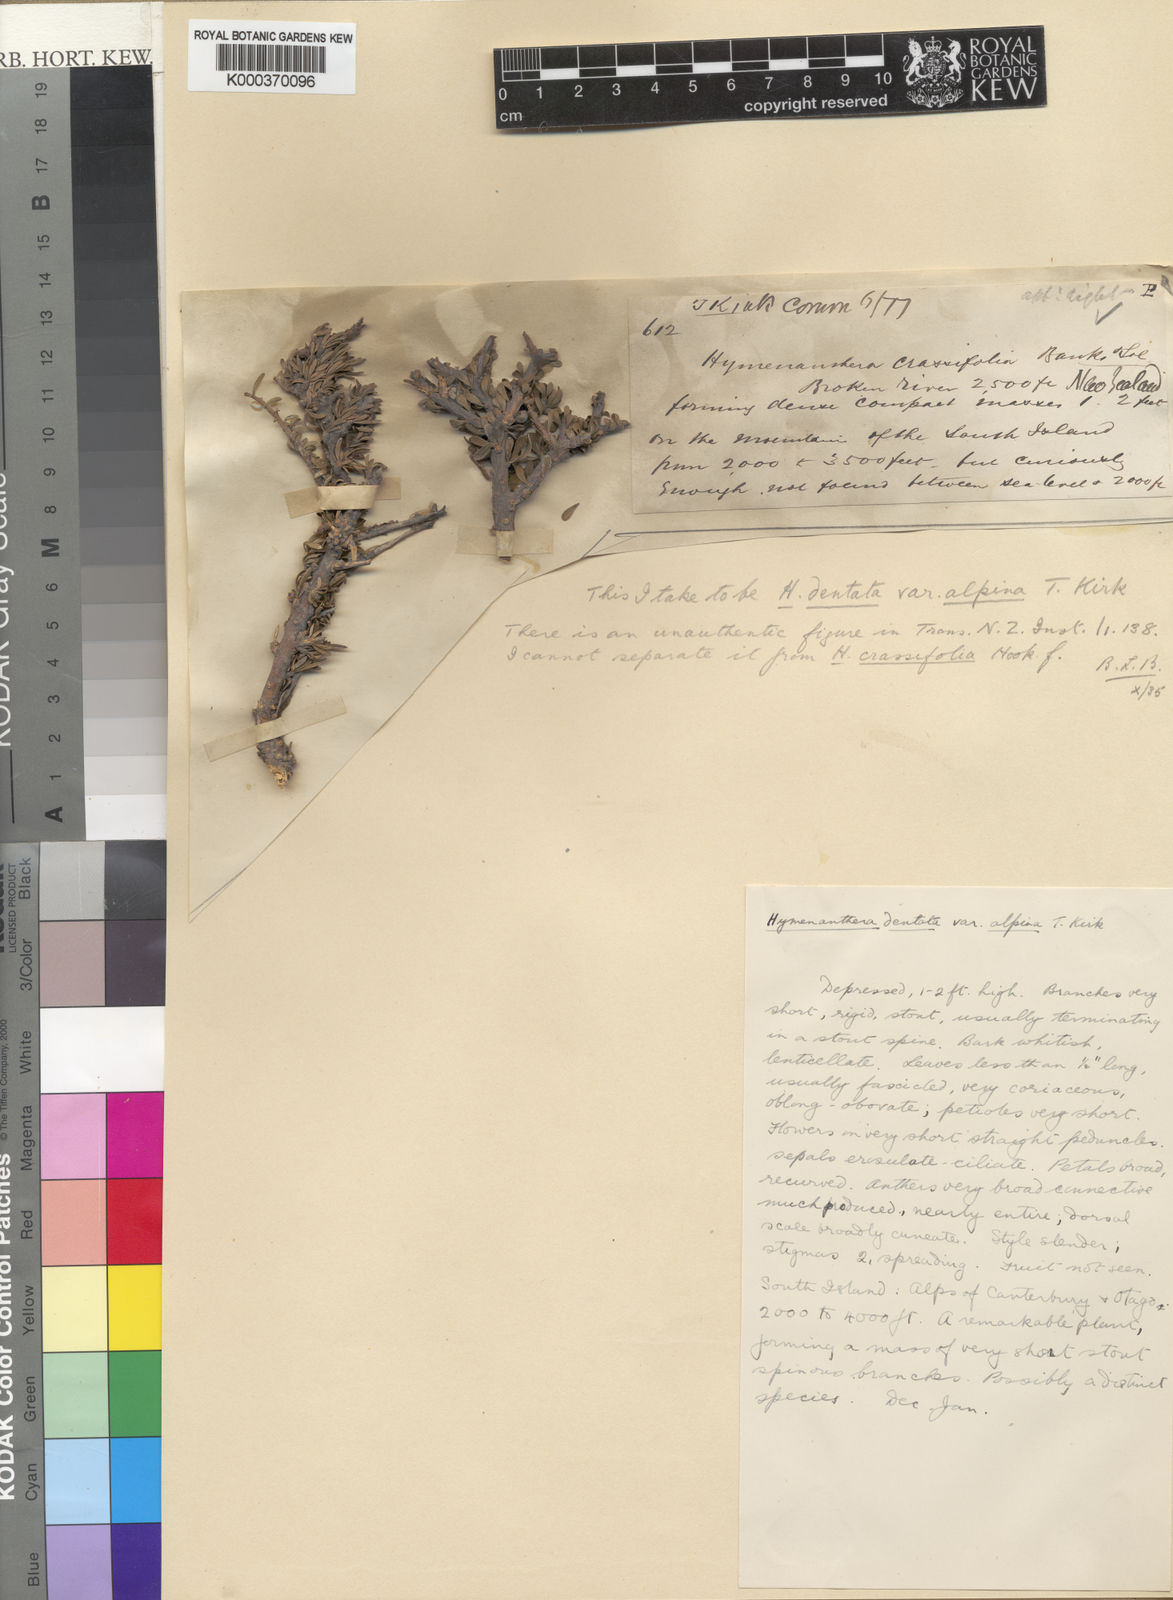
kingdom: Plantae
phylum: Tracheophyta
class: Magnoliopsida
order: Malpighiales
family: Violaceae
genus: Melicytus
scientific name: Melicytus
